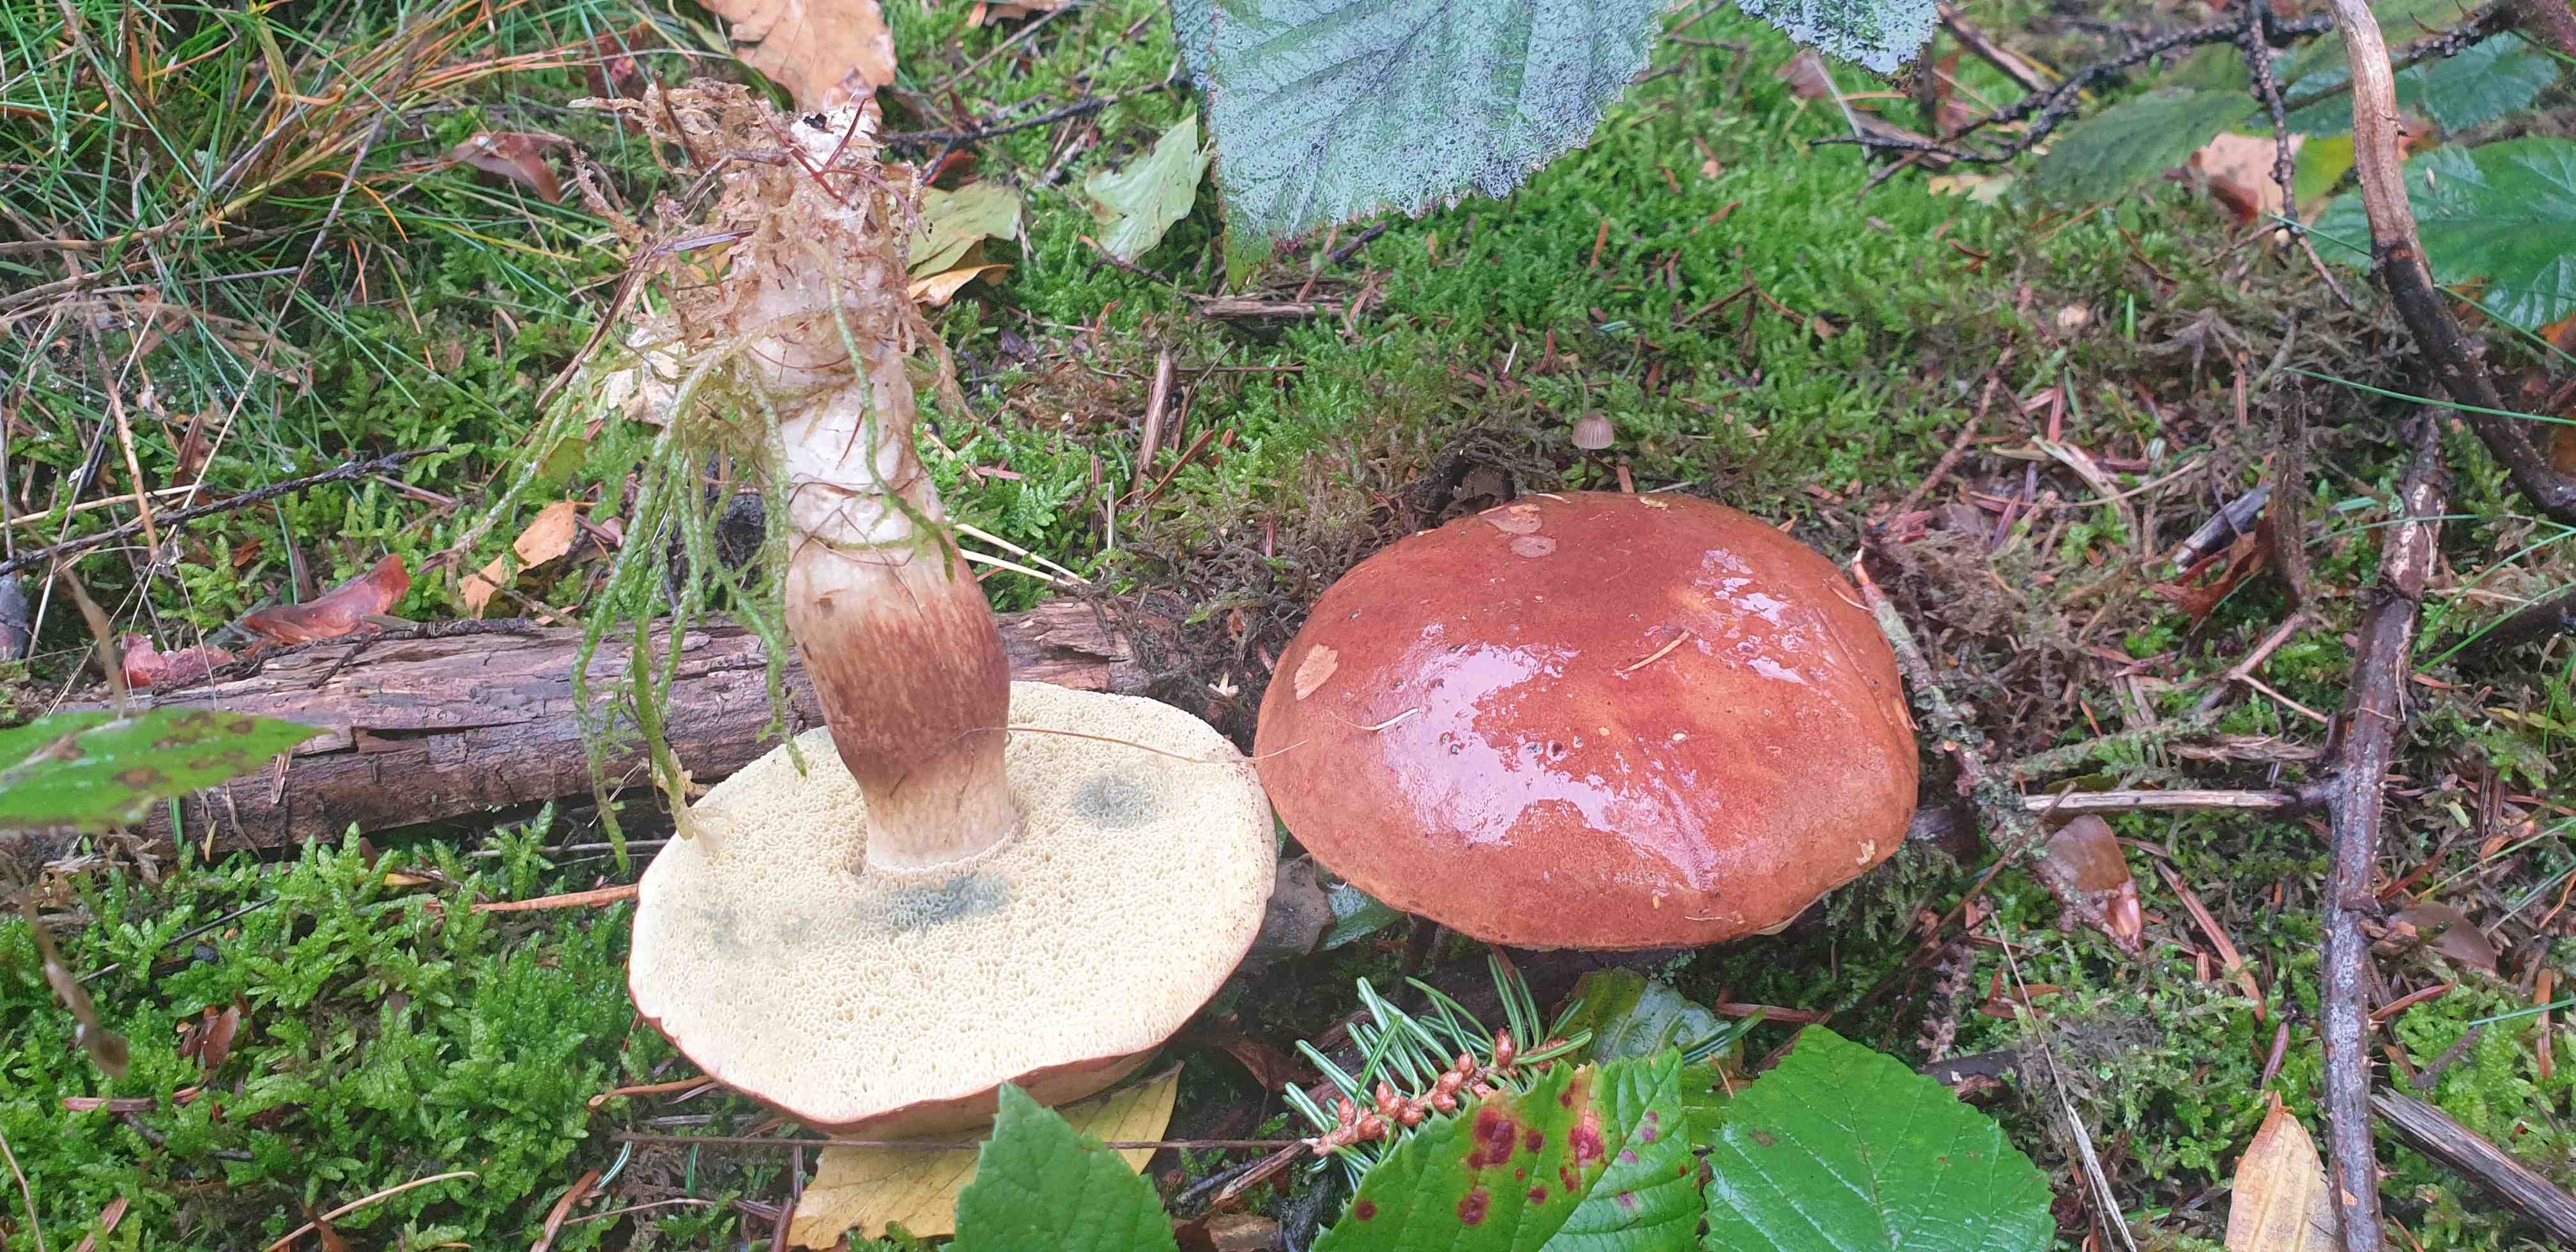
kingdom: Fungi
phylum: Basidiomycota
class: Agaricomycetes
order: Boletales
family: Boletaceae
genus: Imleria
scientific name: Imleria badia
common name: brunstokket rørhat
